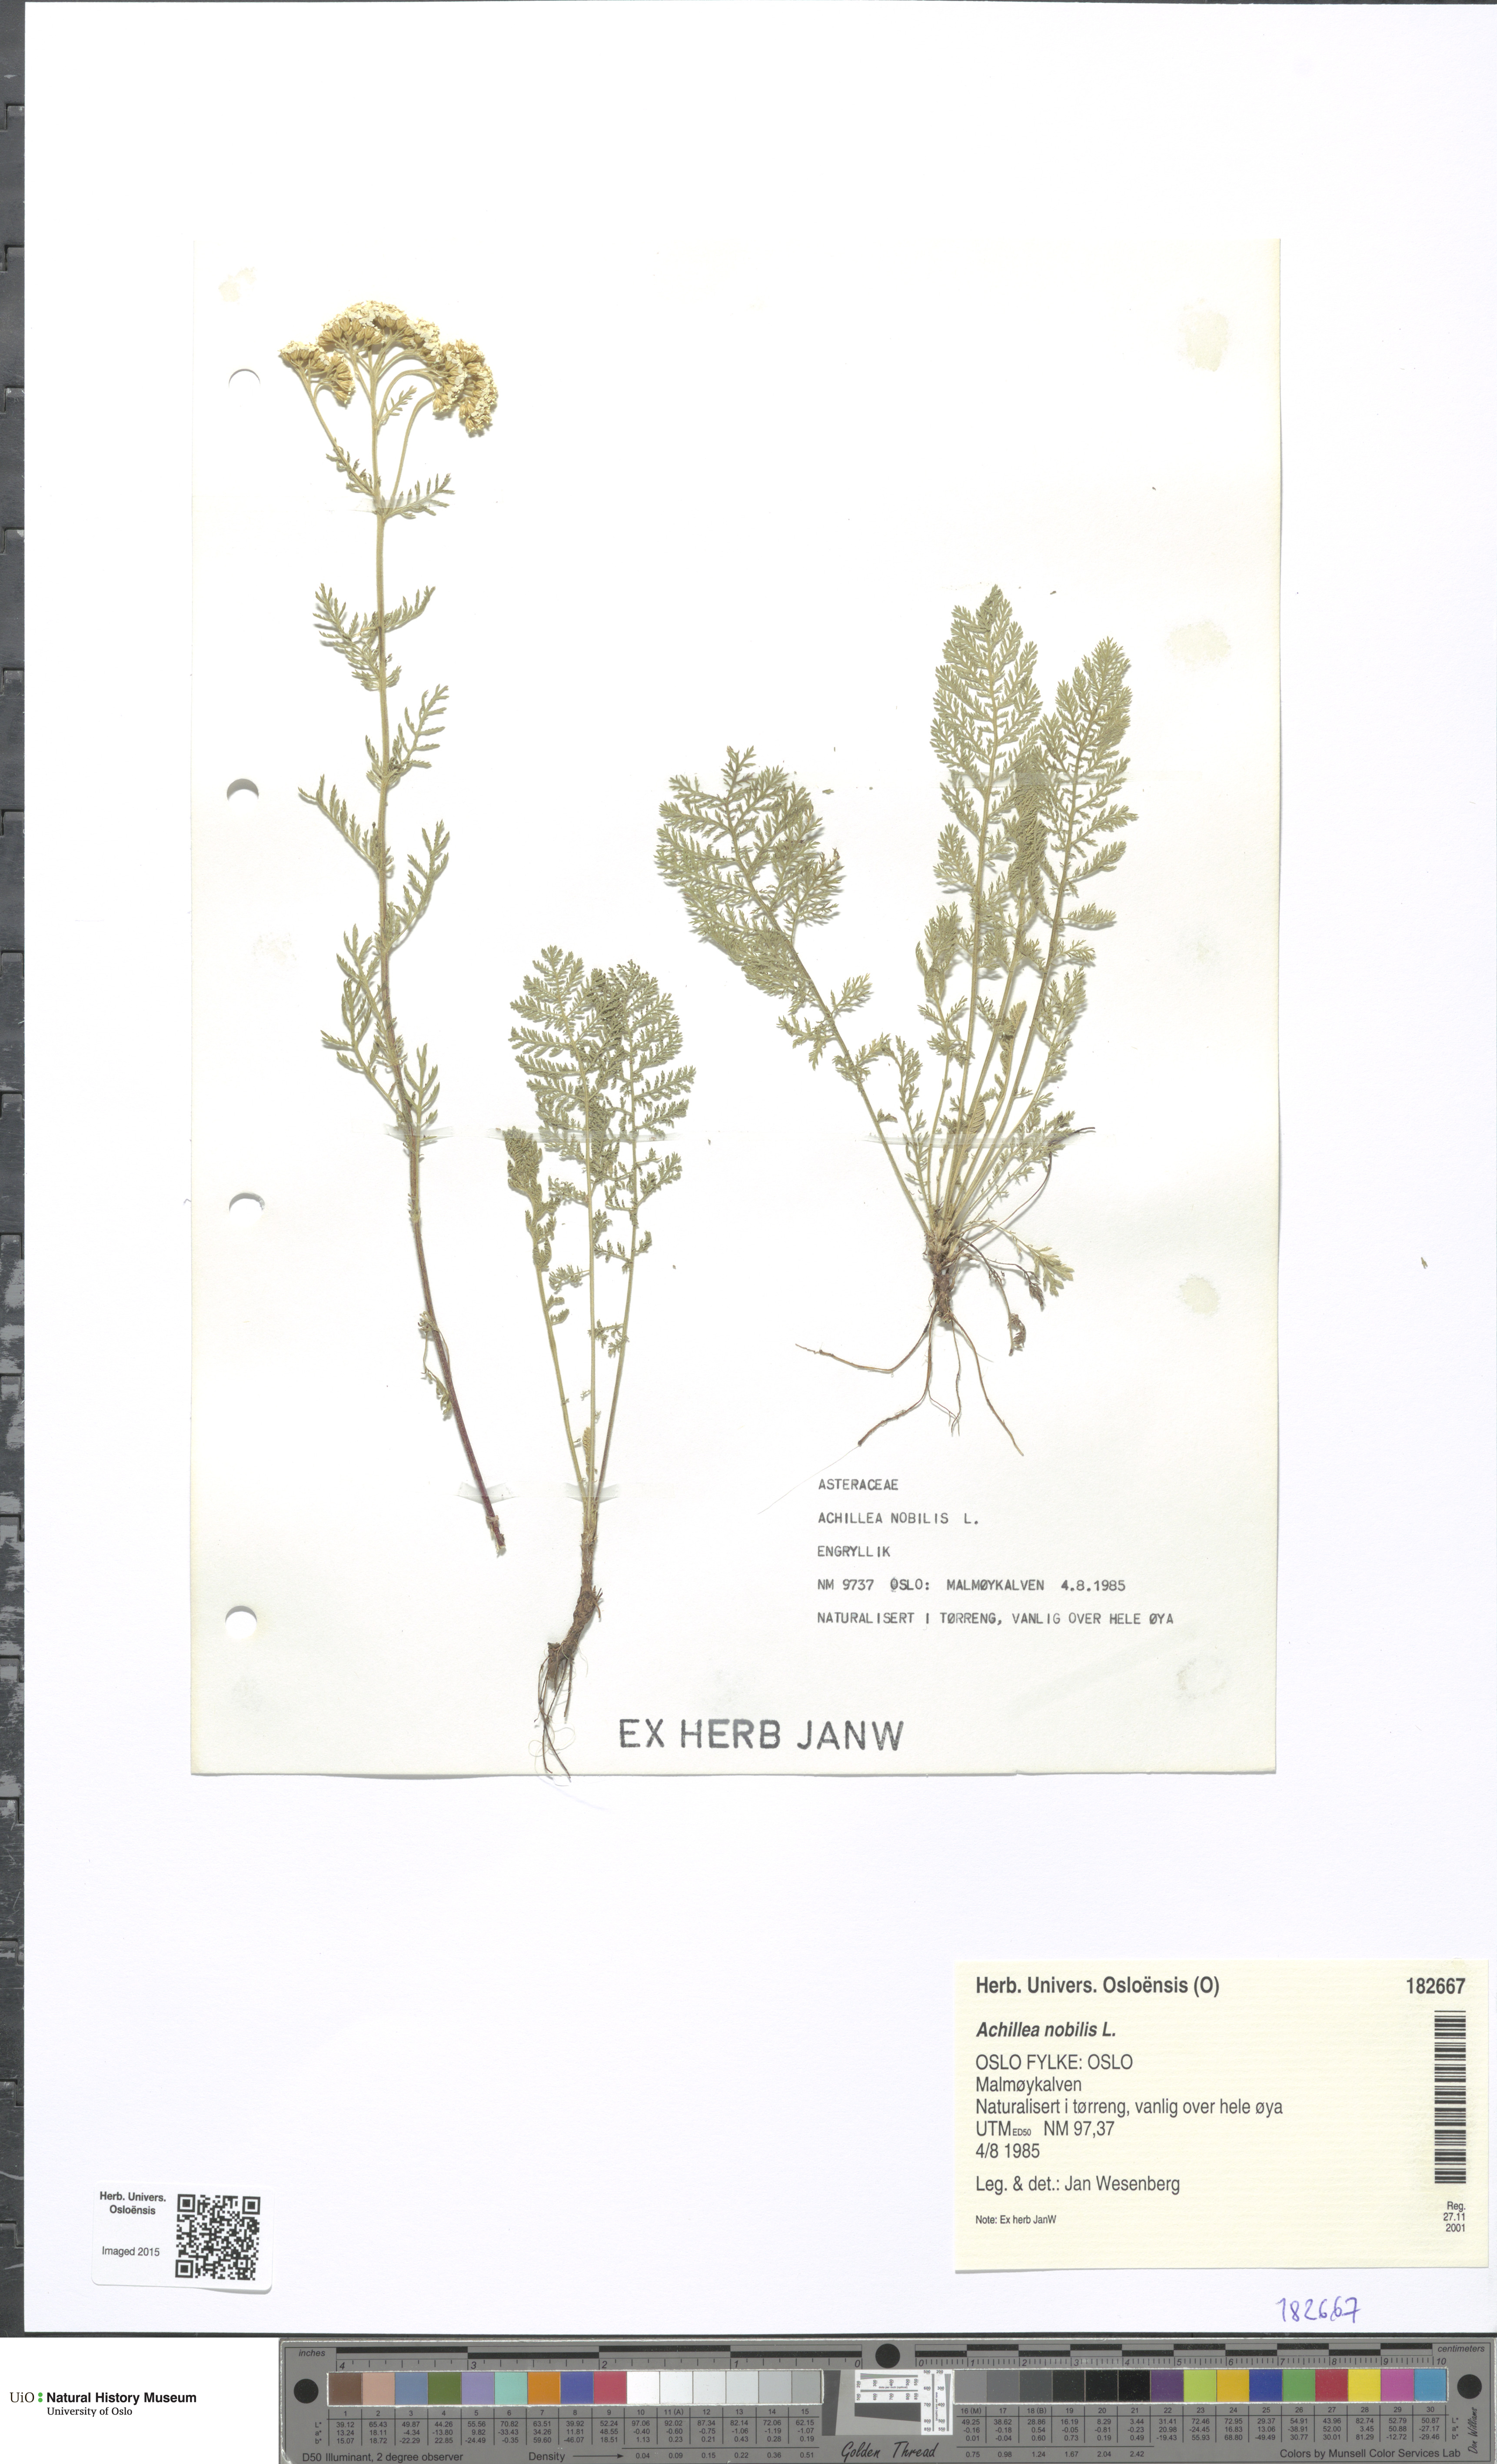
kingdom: Plantae
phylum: Tracheophyta
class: Magnoliopsida
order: Asterales
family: Asteraceae
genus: Achillea
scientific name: Achillea nobilis
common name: Noble yarrow
